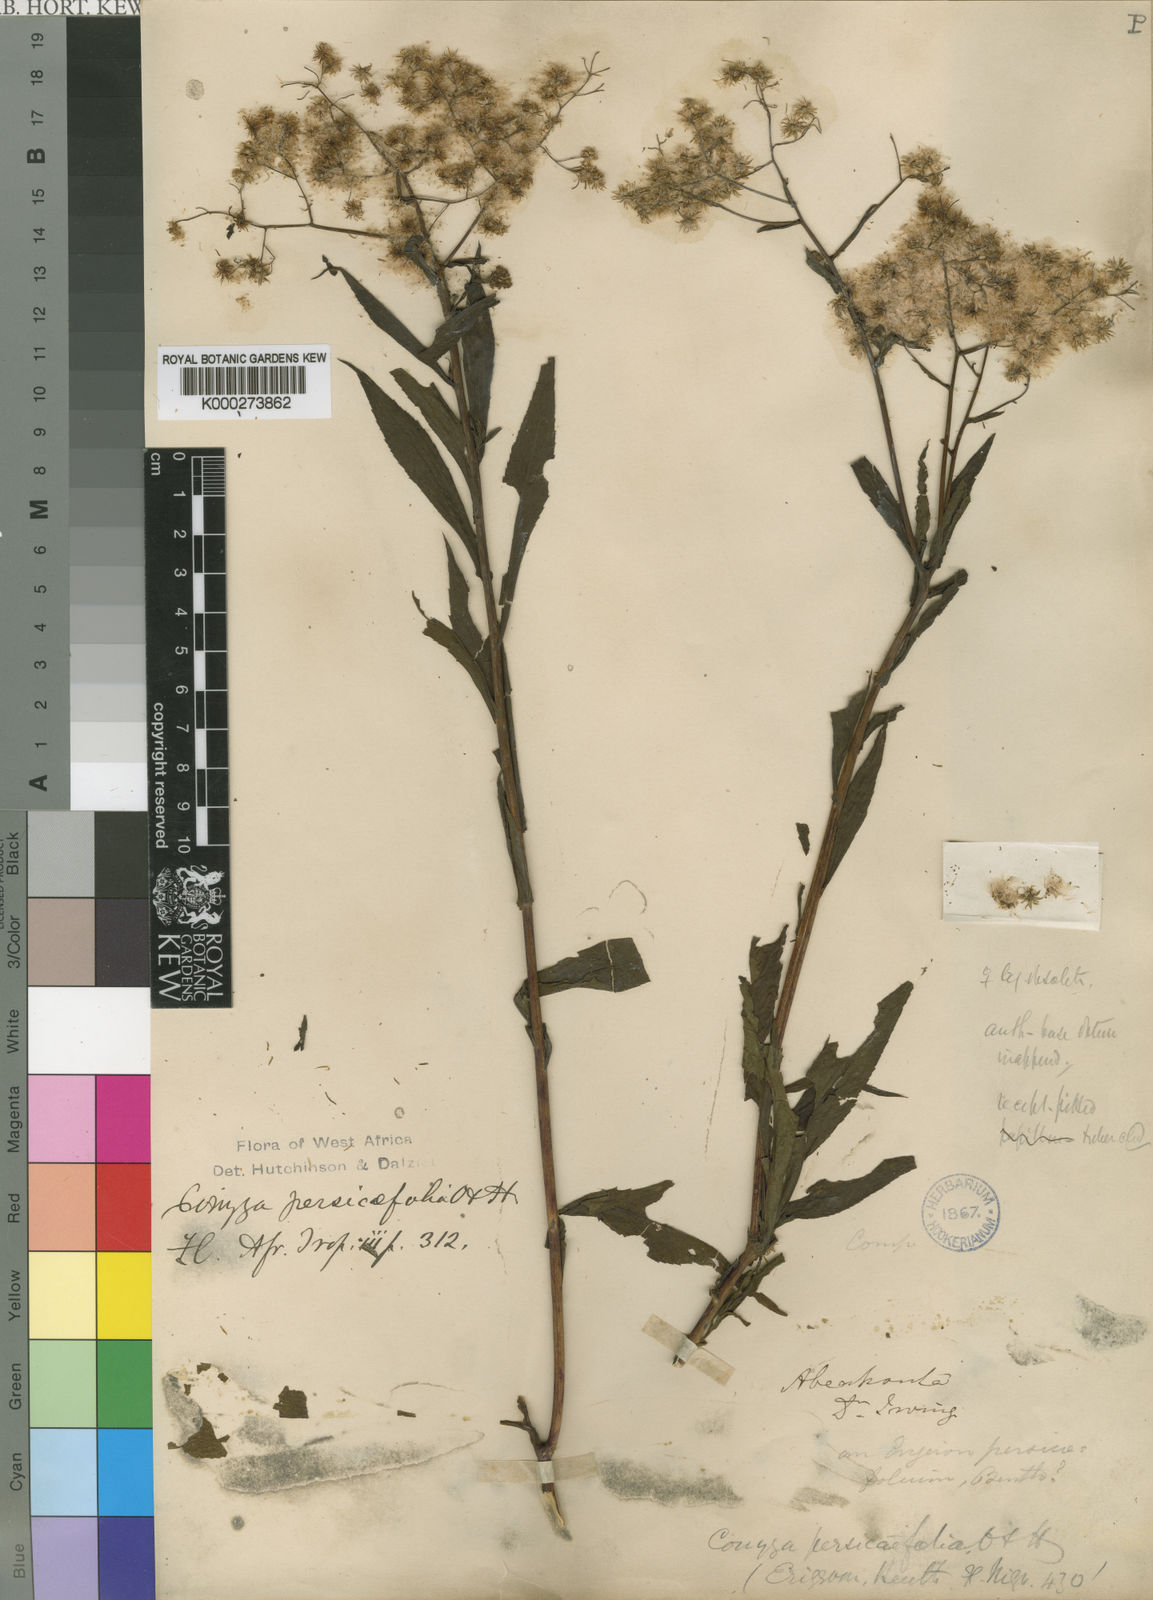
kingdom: Plantae
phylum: Tracheophyta
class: Magnoliopsida
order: Asterales
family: Asteraceae
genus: Nidorella
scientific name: Nidorella attenuata
